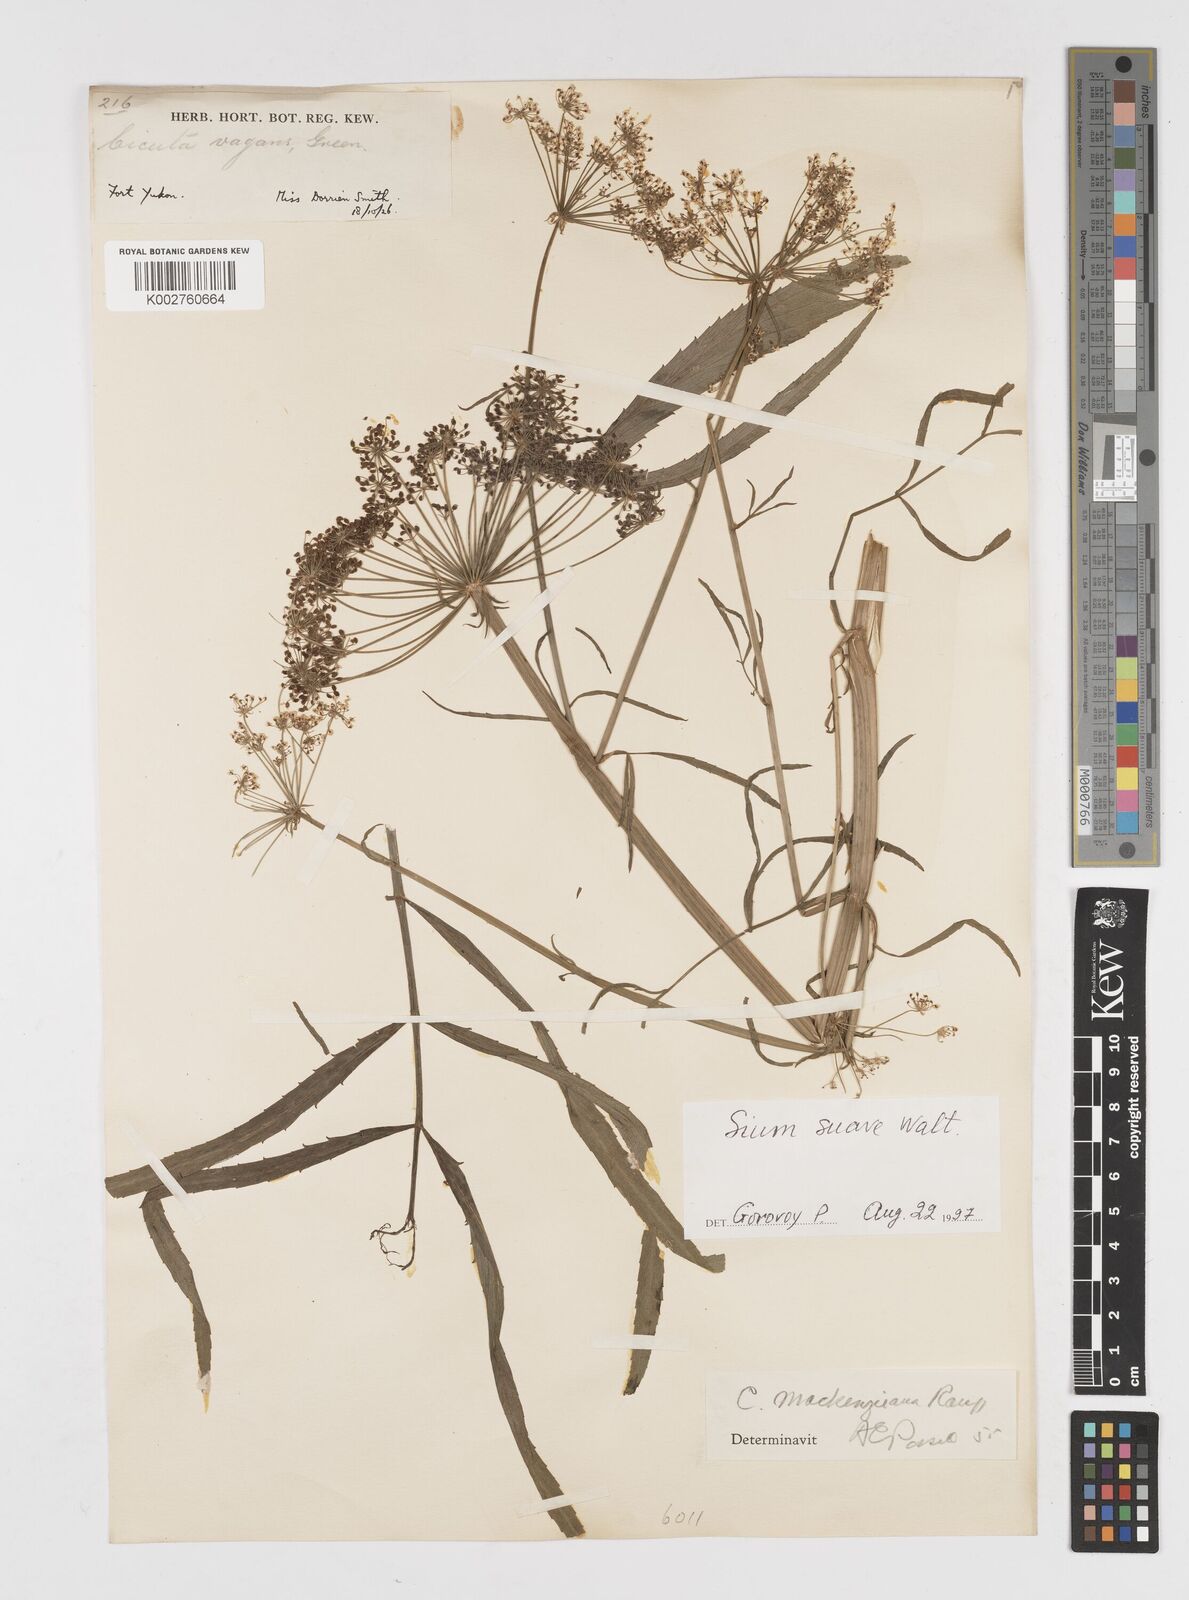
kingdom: Plantae
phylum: Tracheophyta
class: Magnoliopsida
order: Apiales
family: Apiaceae
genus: Cicuta
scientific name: Cicuta virosa
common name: Cowbane
